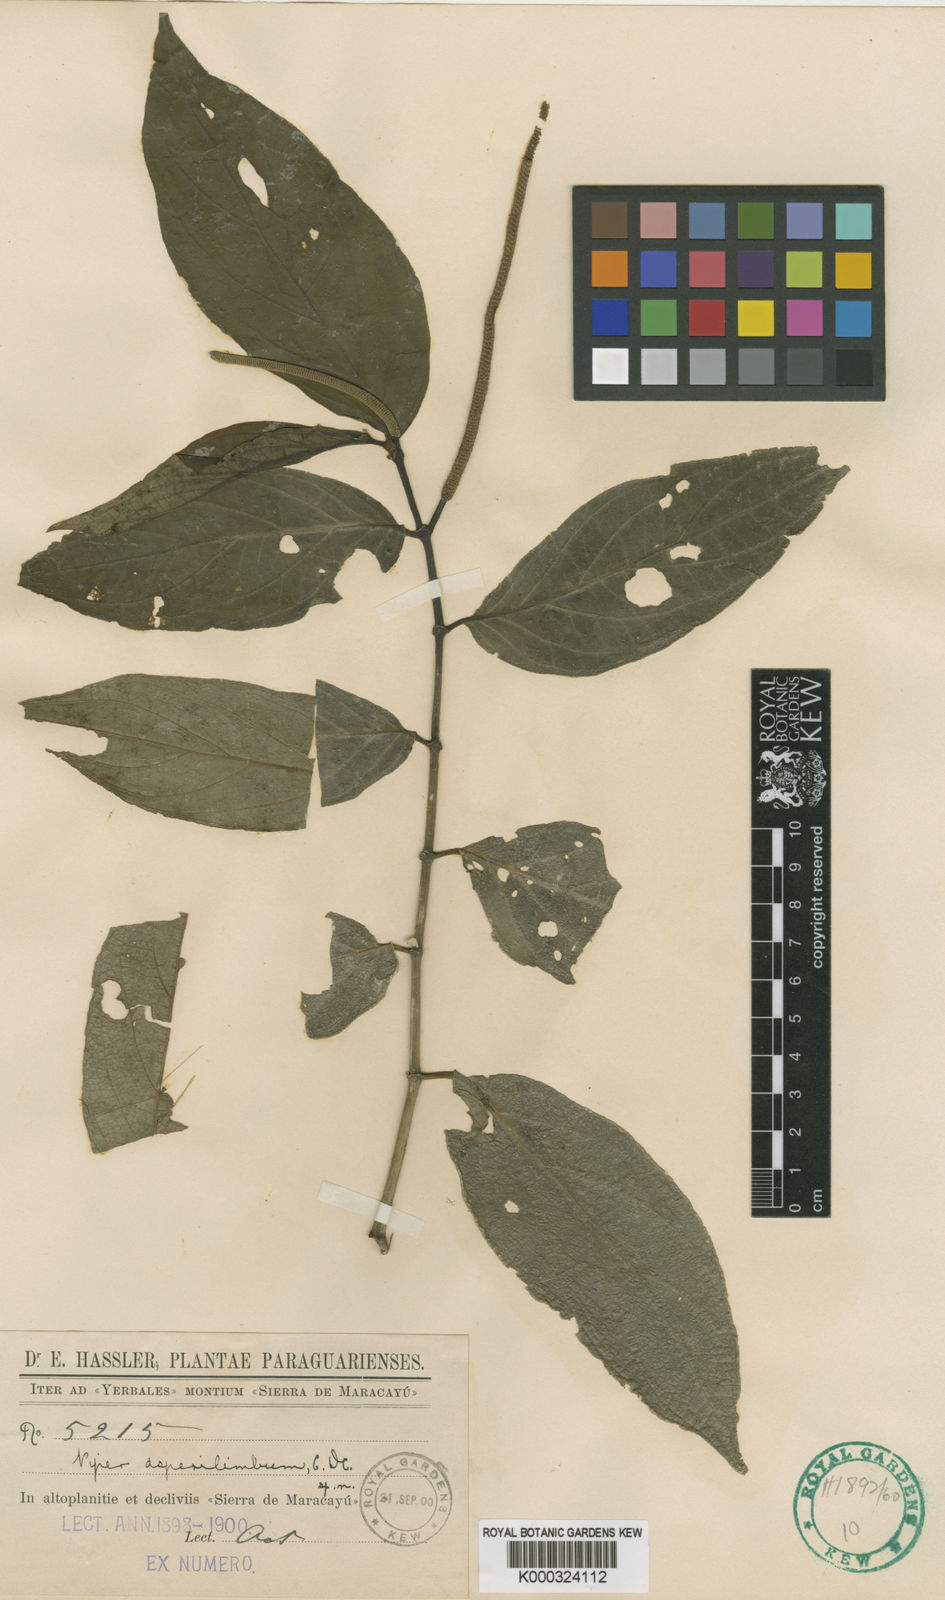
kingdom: Plantae
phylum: Tracheophyta
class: Magnoliopsida
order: Piperales
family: Piperaceae
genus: Piper
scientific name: Piper asperilimbum
